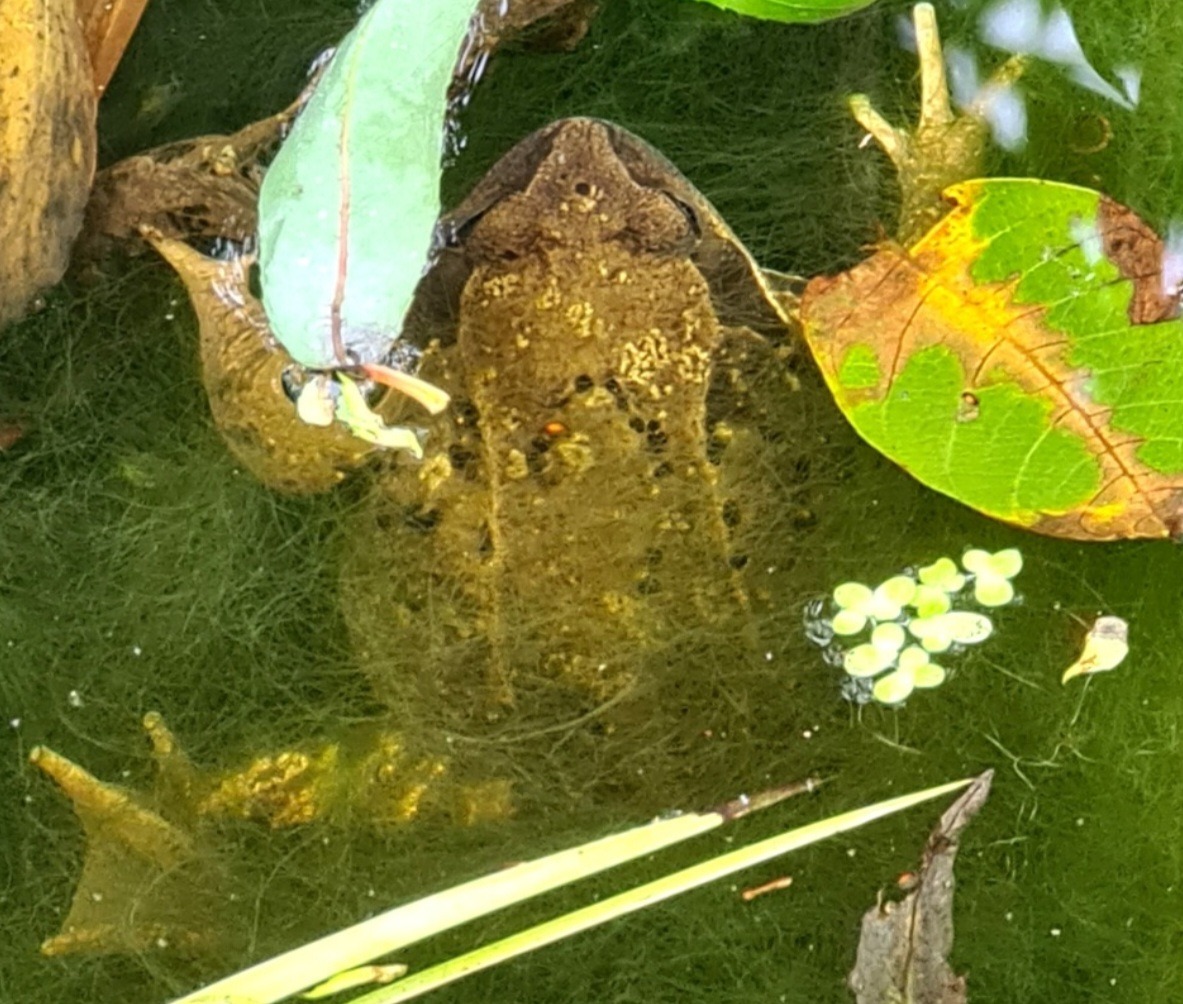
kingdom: Animalia
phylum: Chordata
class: Amphibia
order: Anura
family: Ranidae
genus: Rana
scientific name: Rana temporaria
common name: Butsnudet frø
